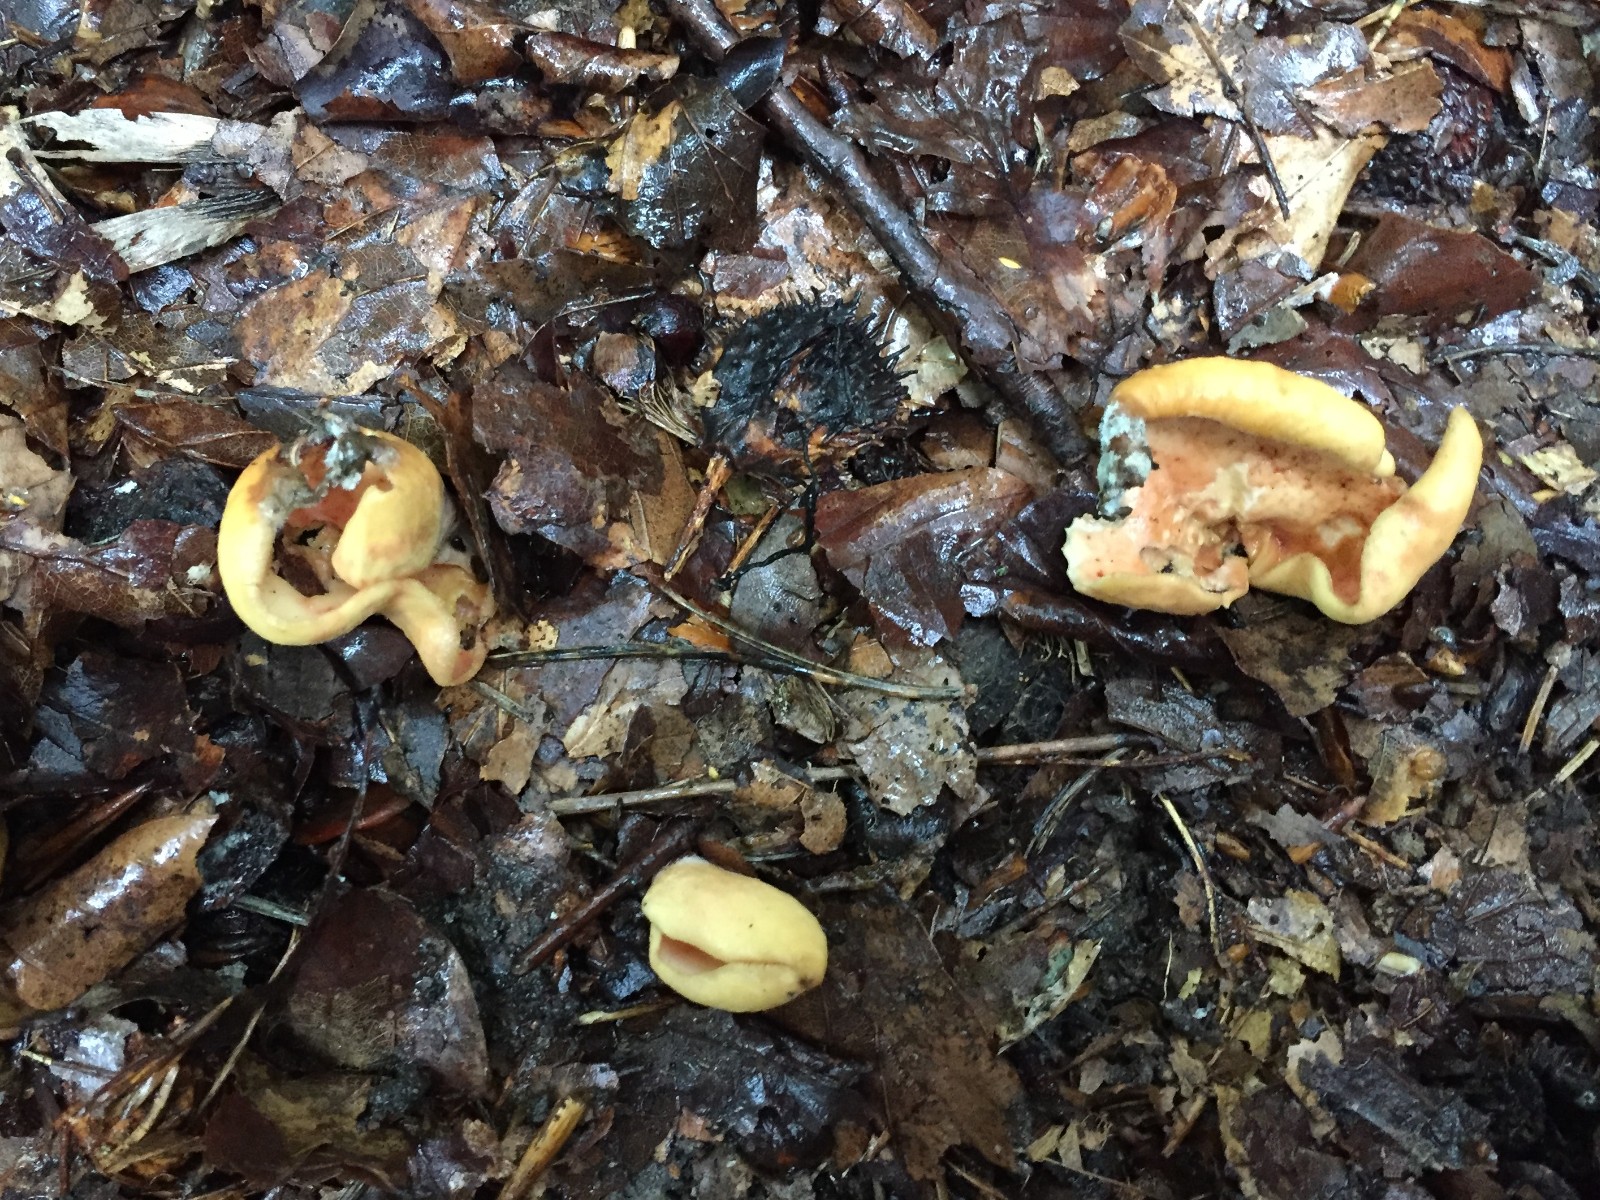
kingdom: Fungi
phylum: Ascomycota
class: Pezizomycetes
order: Pezizales
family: Otideaceae
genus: Otidea
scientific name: Otidea onotica
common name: æsel-ørebæger
